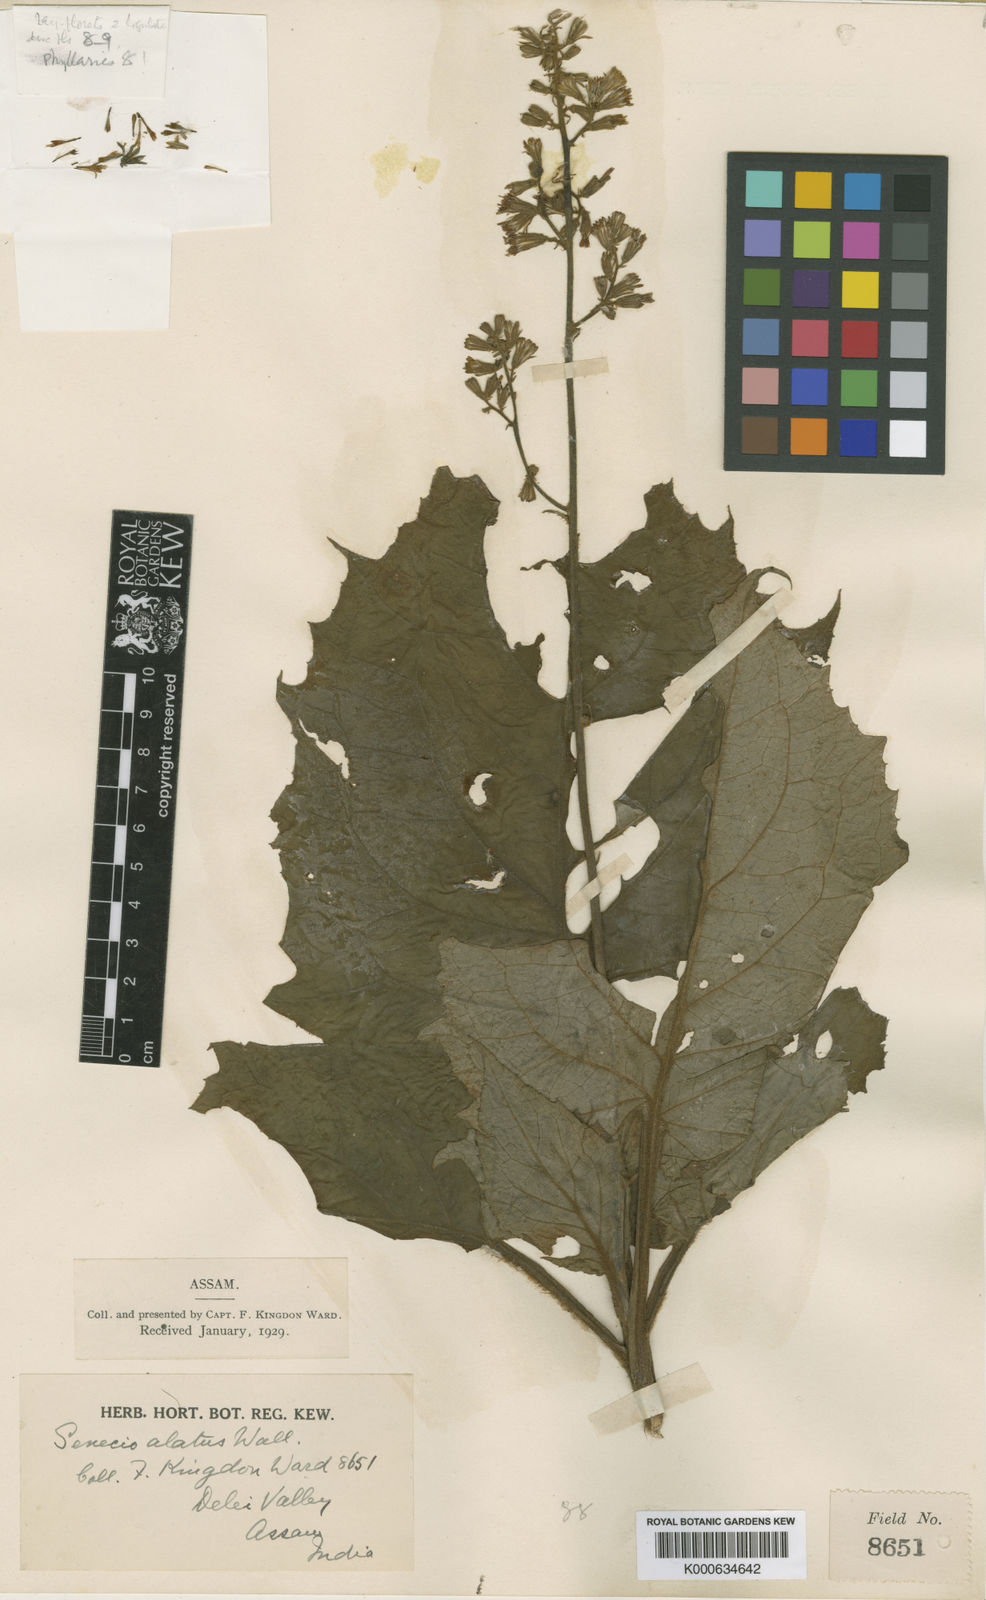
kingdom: Plantae
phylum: Tracheophyta
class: Magnoliopsida
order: Asterales
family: Asteraceae
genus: Synotis
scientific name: Synotis ainsliaeifolia
